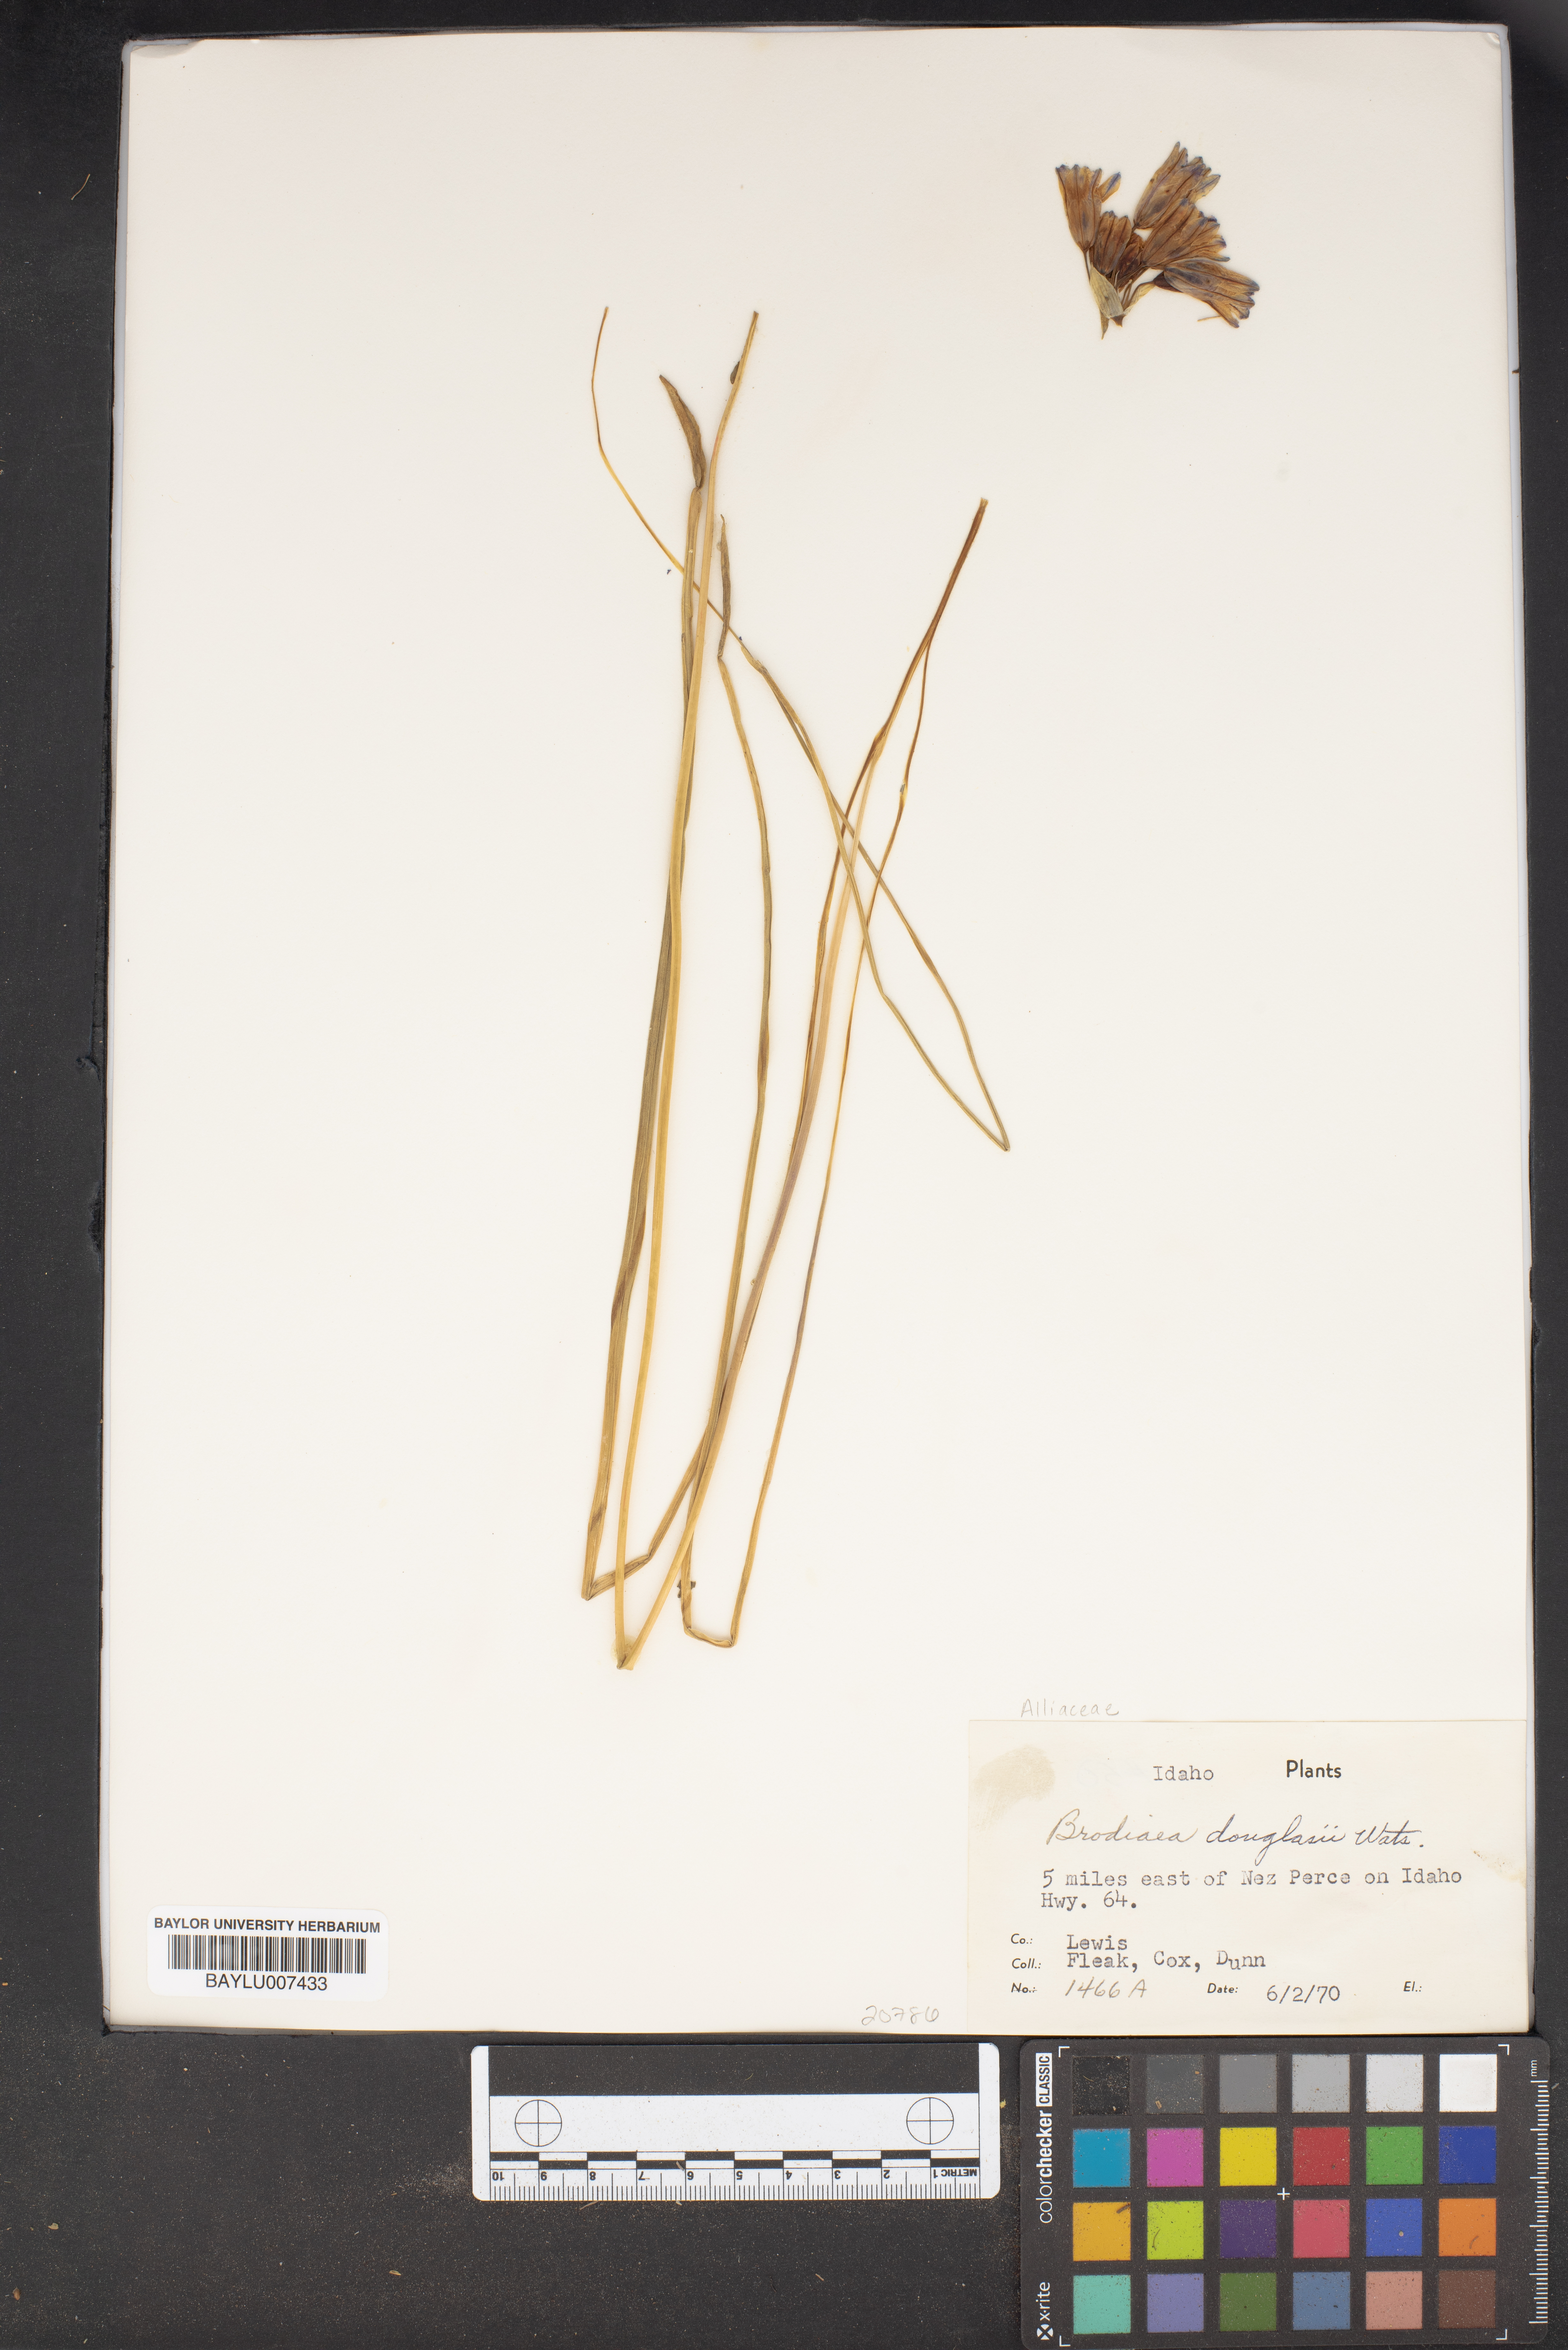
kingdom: Plantae
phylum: Tracheophyta
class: Liliopsida
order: Asparagales
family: Asparagaceae
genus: Triteleia
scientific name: Triteleia grandiflora
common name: Wild hyacinth
